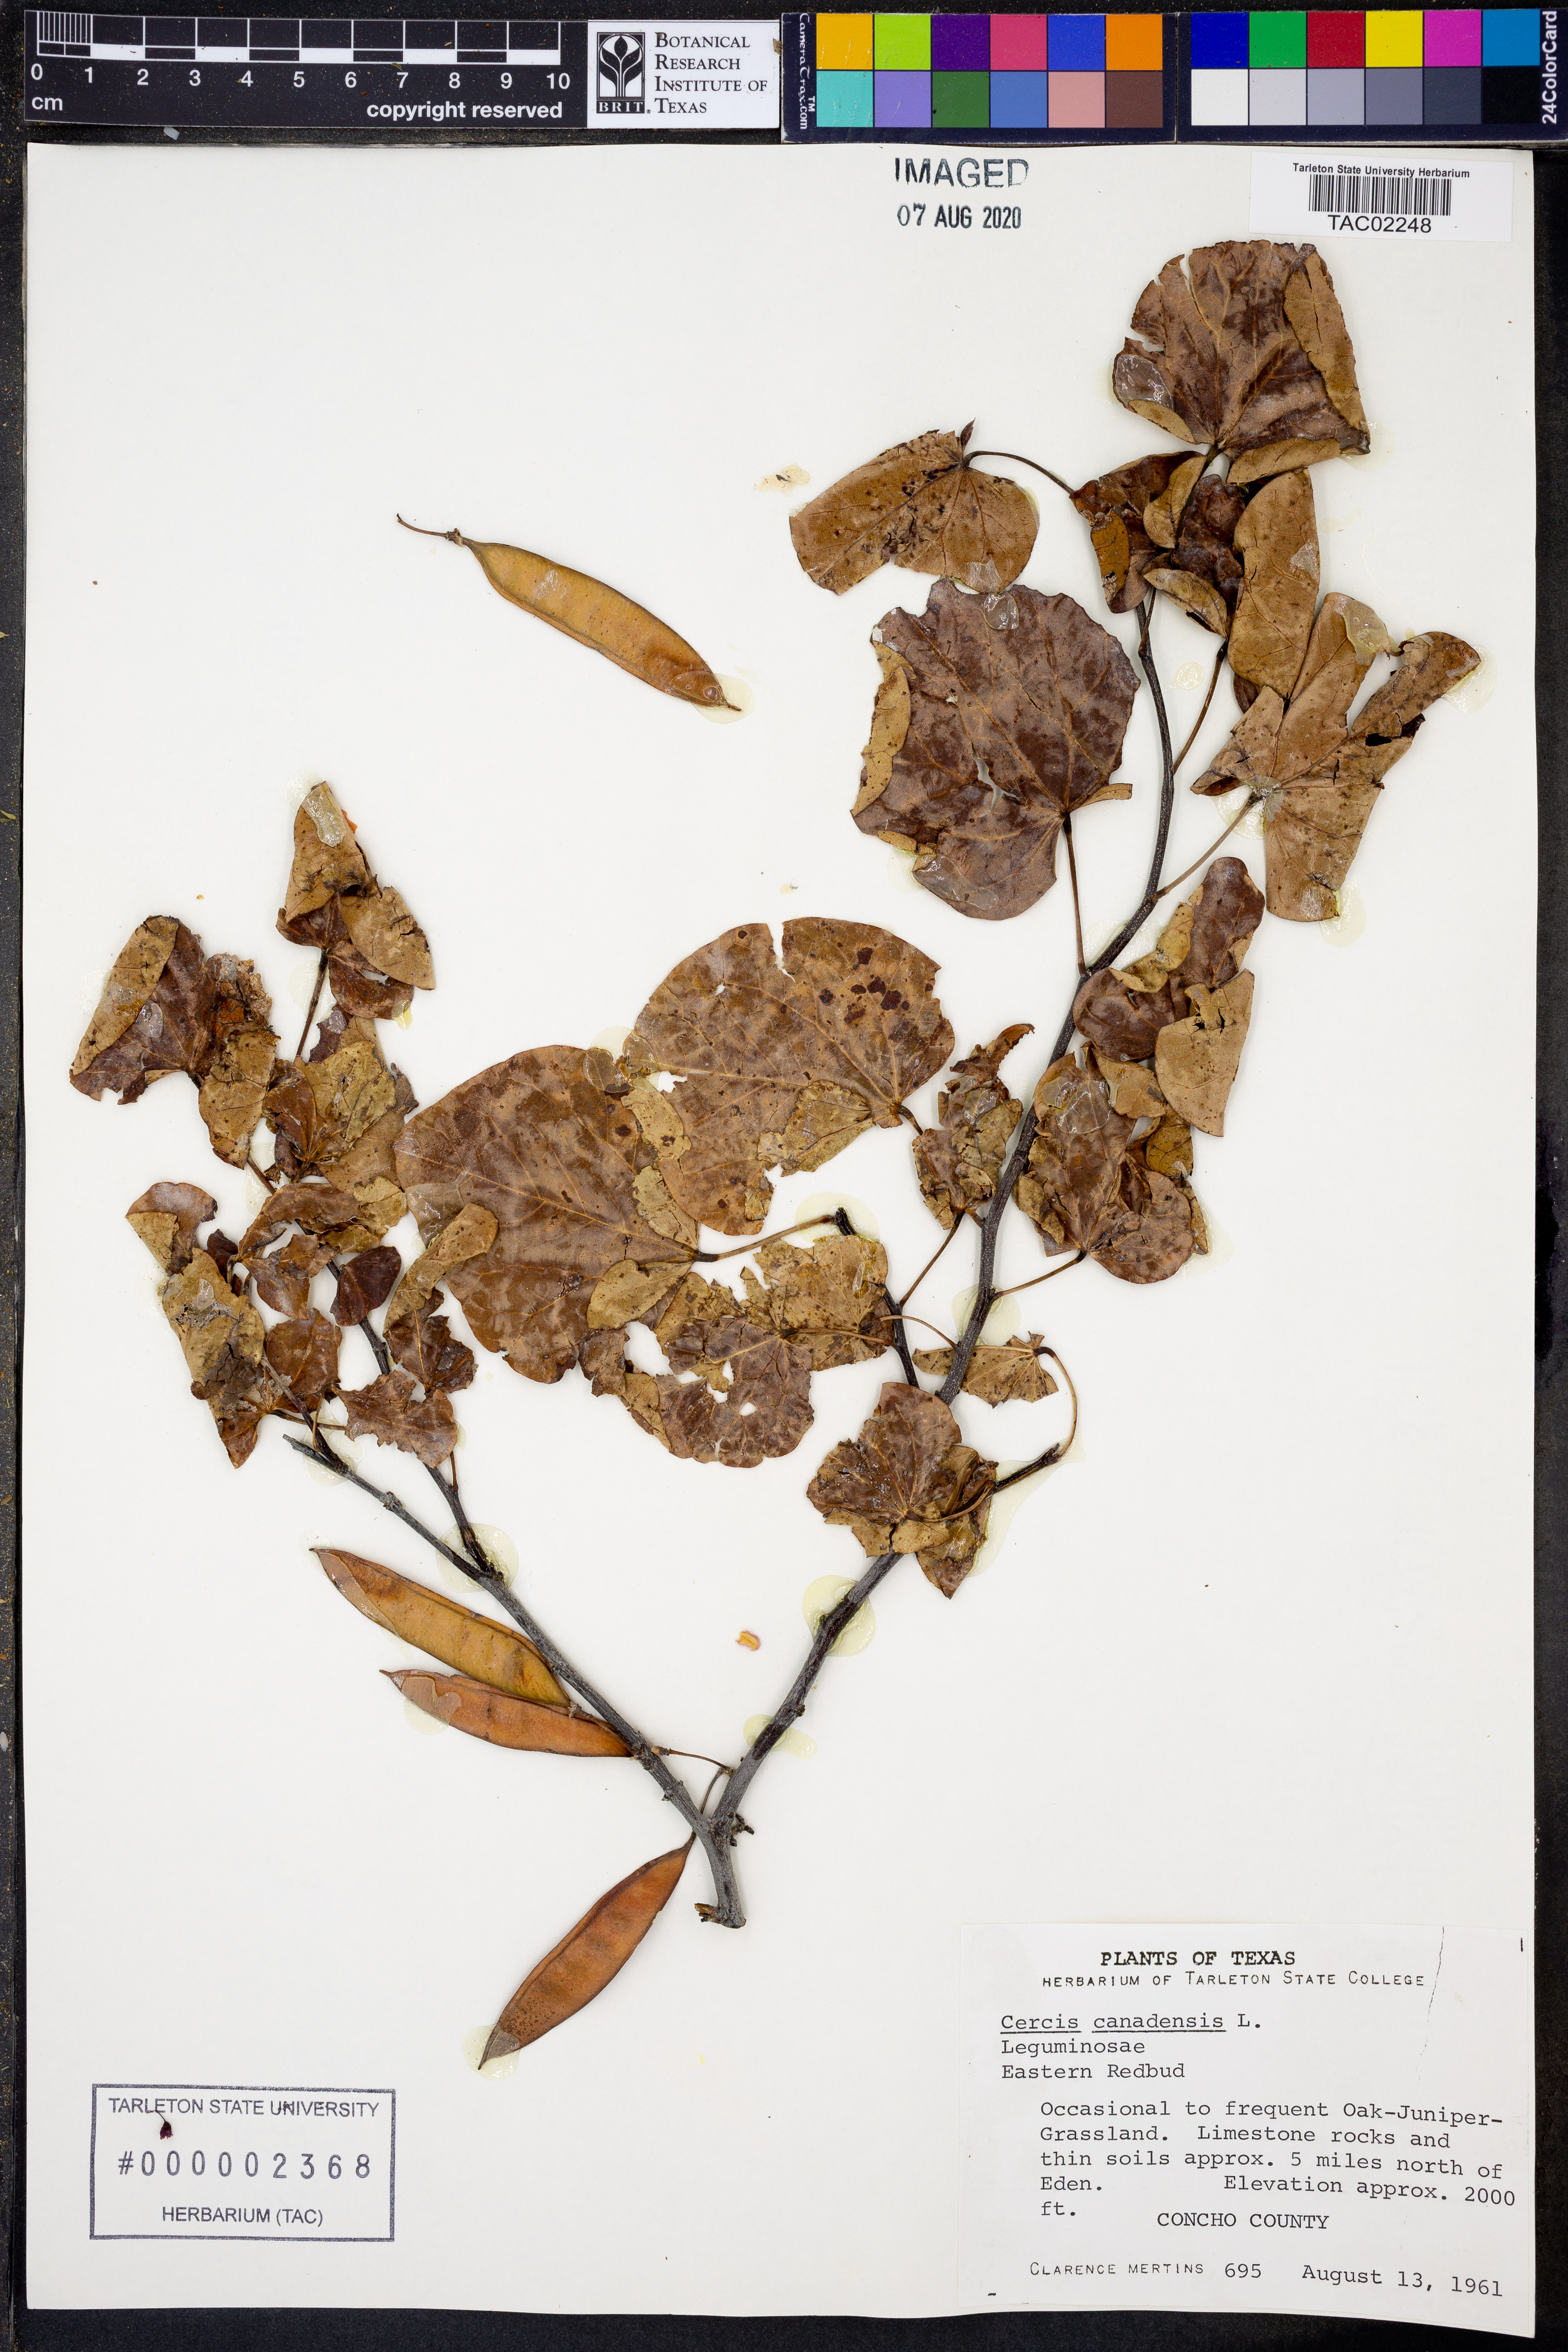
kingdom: Plantae
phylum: Tracheophyta
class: Magnoliopsida
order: Fabales
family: Fabaceae
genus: Cercis
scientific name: Cercis canadensis
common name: Eastern redbud
